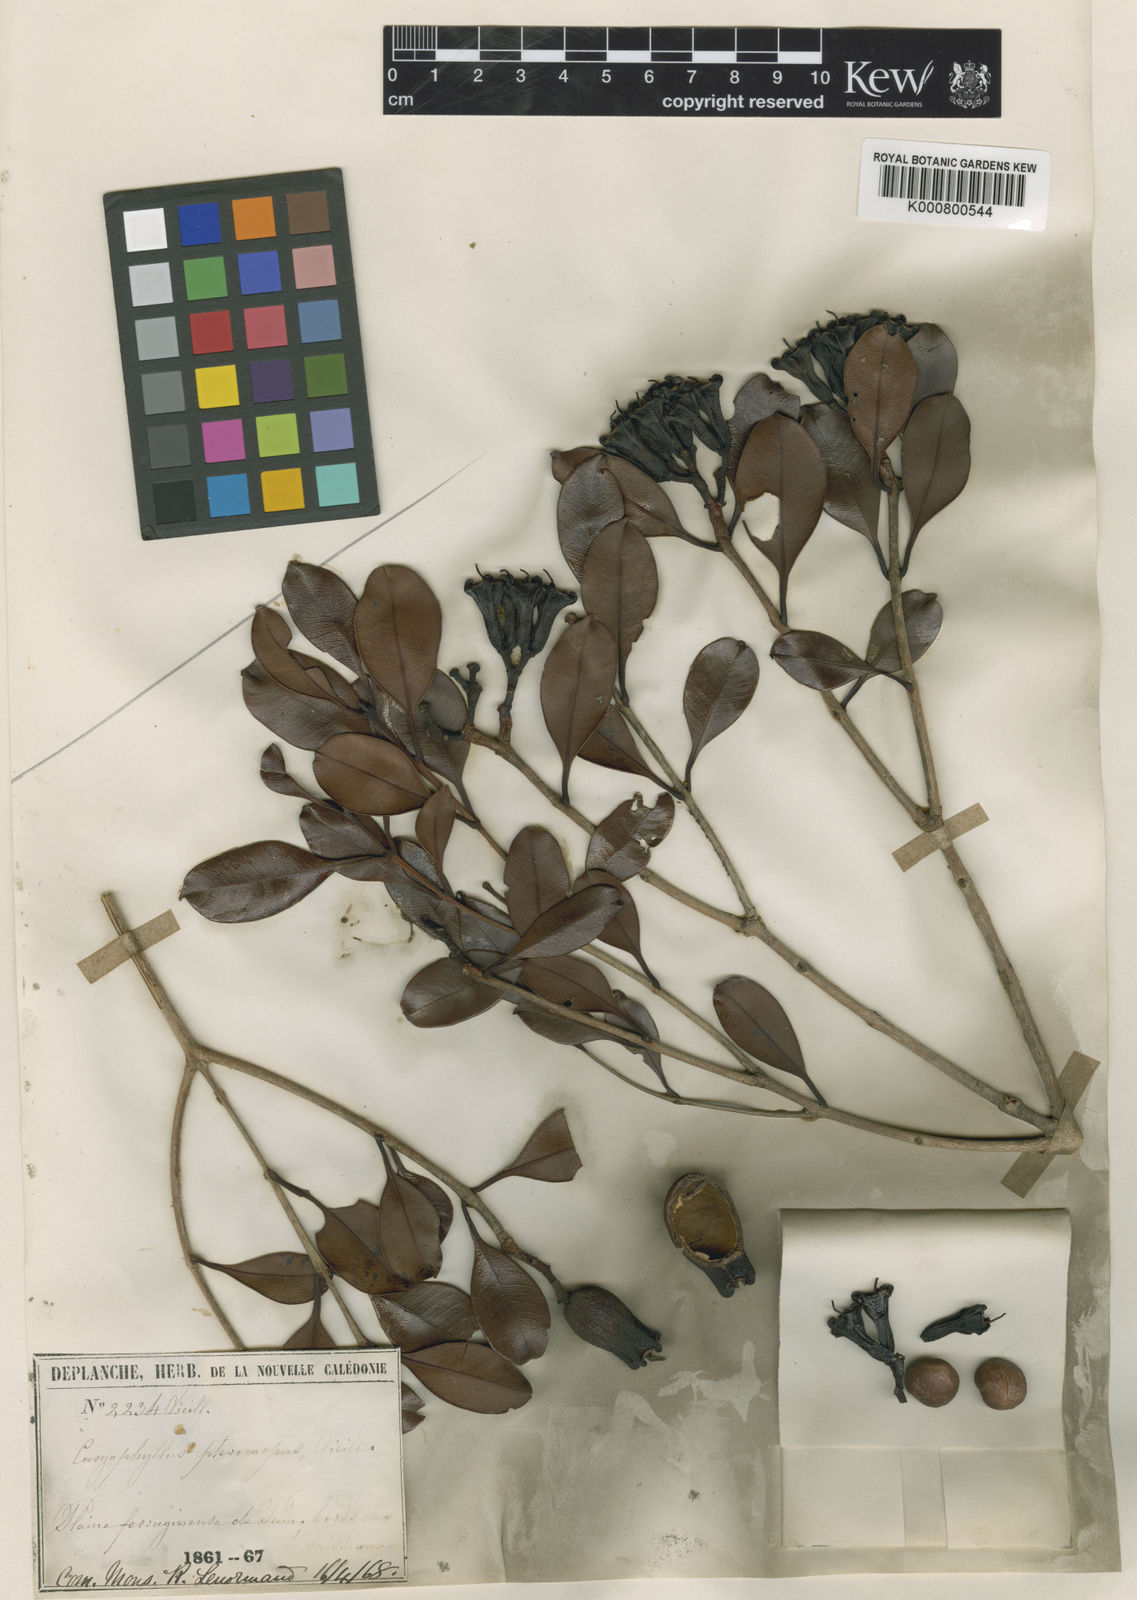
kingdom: Plantae
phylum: Tracheophyta
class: Magnoliopsida
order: Myrtales
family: Myrtaceae
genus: Syzygium
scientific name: Syzygium pterocalyx
